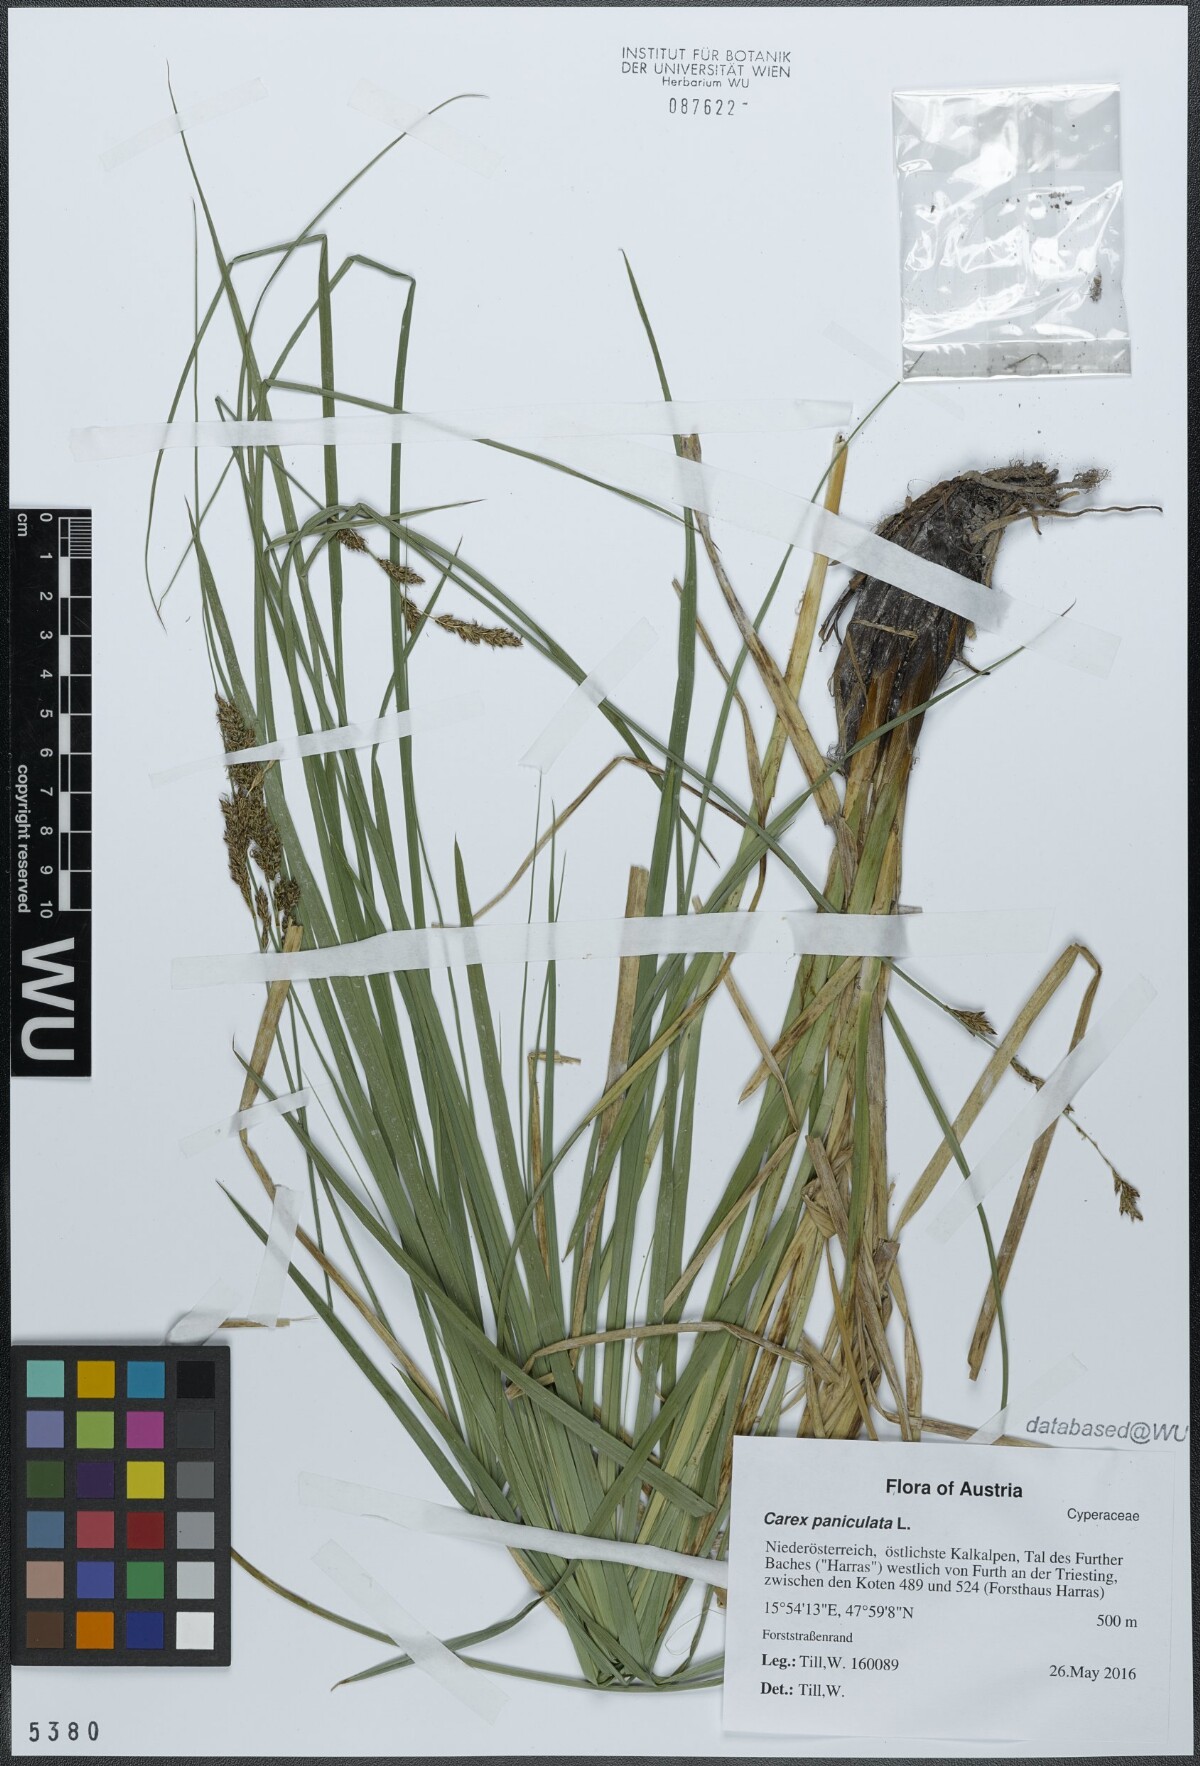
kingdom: Plantae
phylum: Tracheophyta
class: Liliopsida
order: Poales
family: Cyperaceae
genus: Carex
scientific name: Carex paniculata
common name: Greater tussock-sedge
